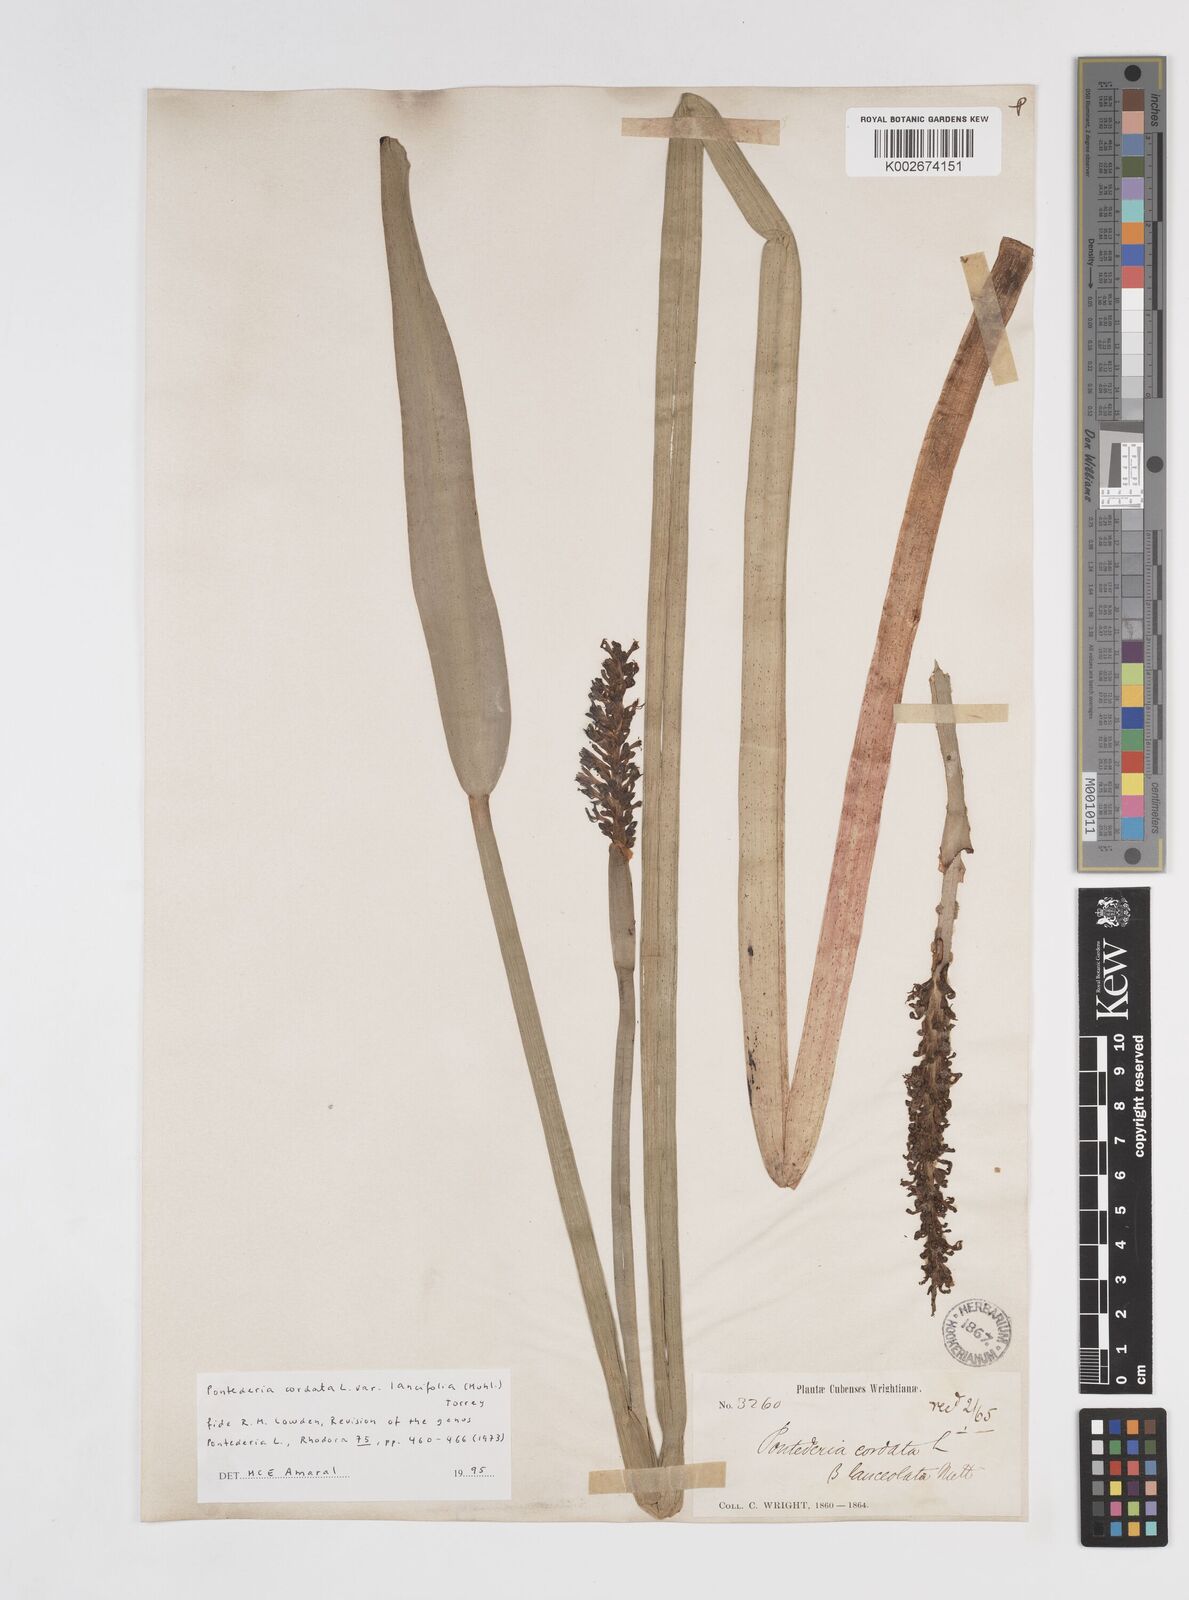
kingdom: Plantae
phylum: Tracheophyta
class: Liliopsida
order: Commelinales
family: Pontederiaceae
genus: Pontederia
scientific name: Pontederia
